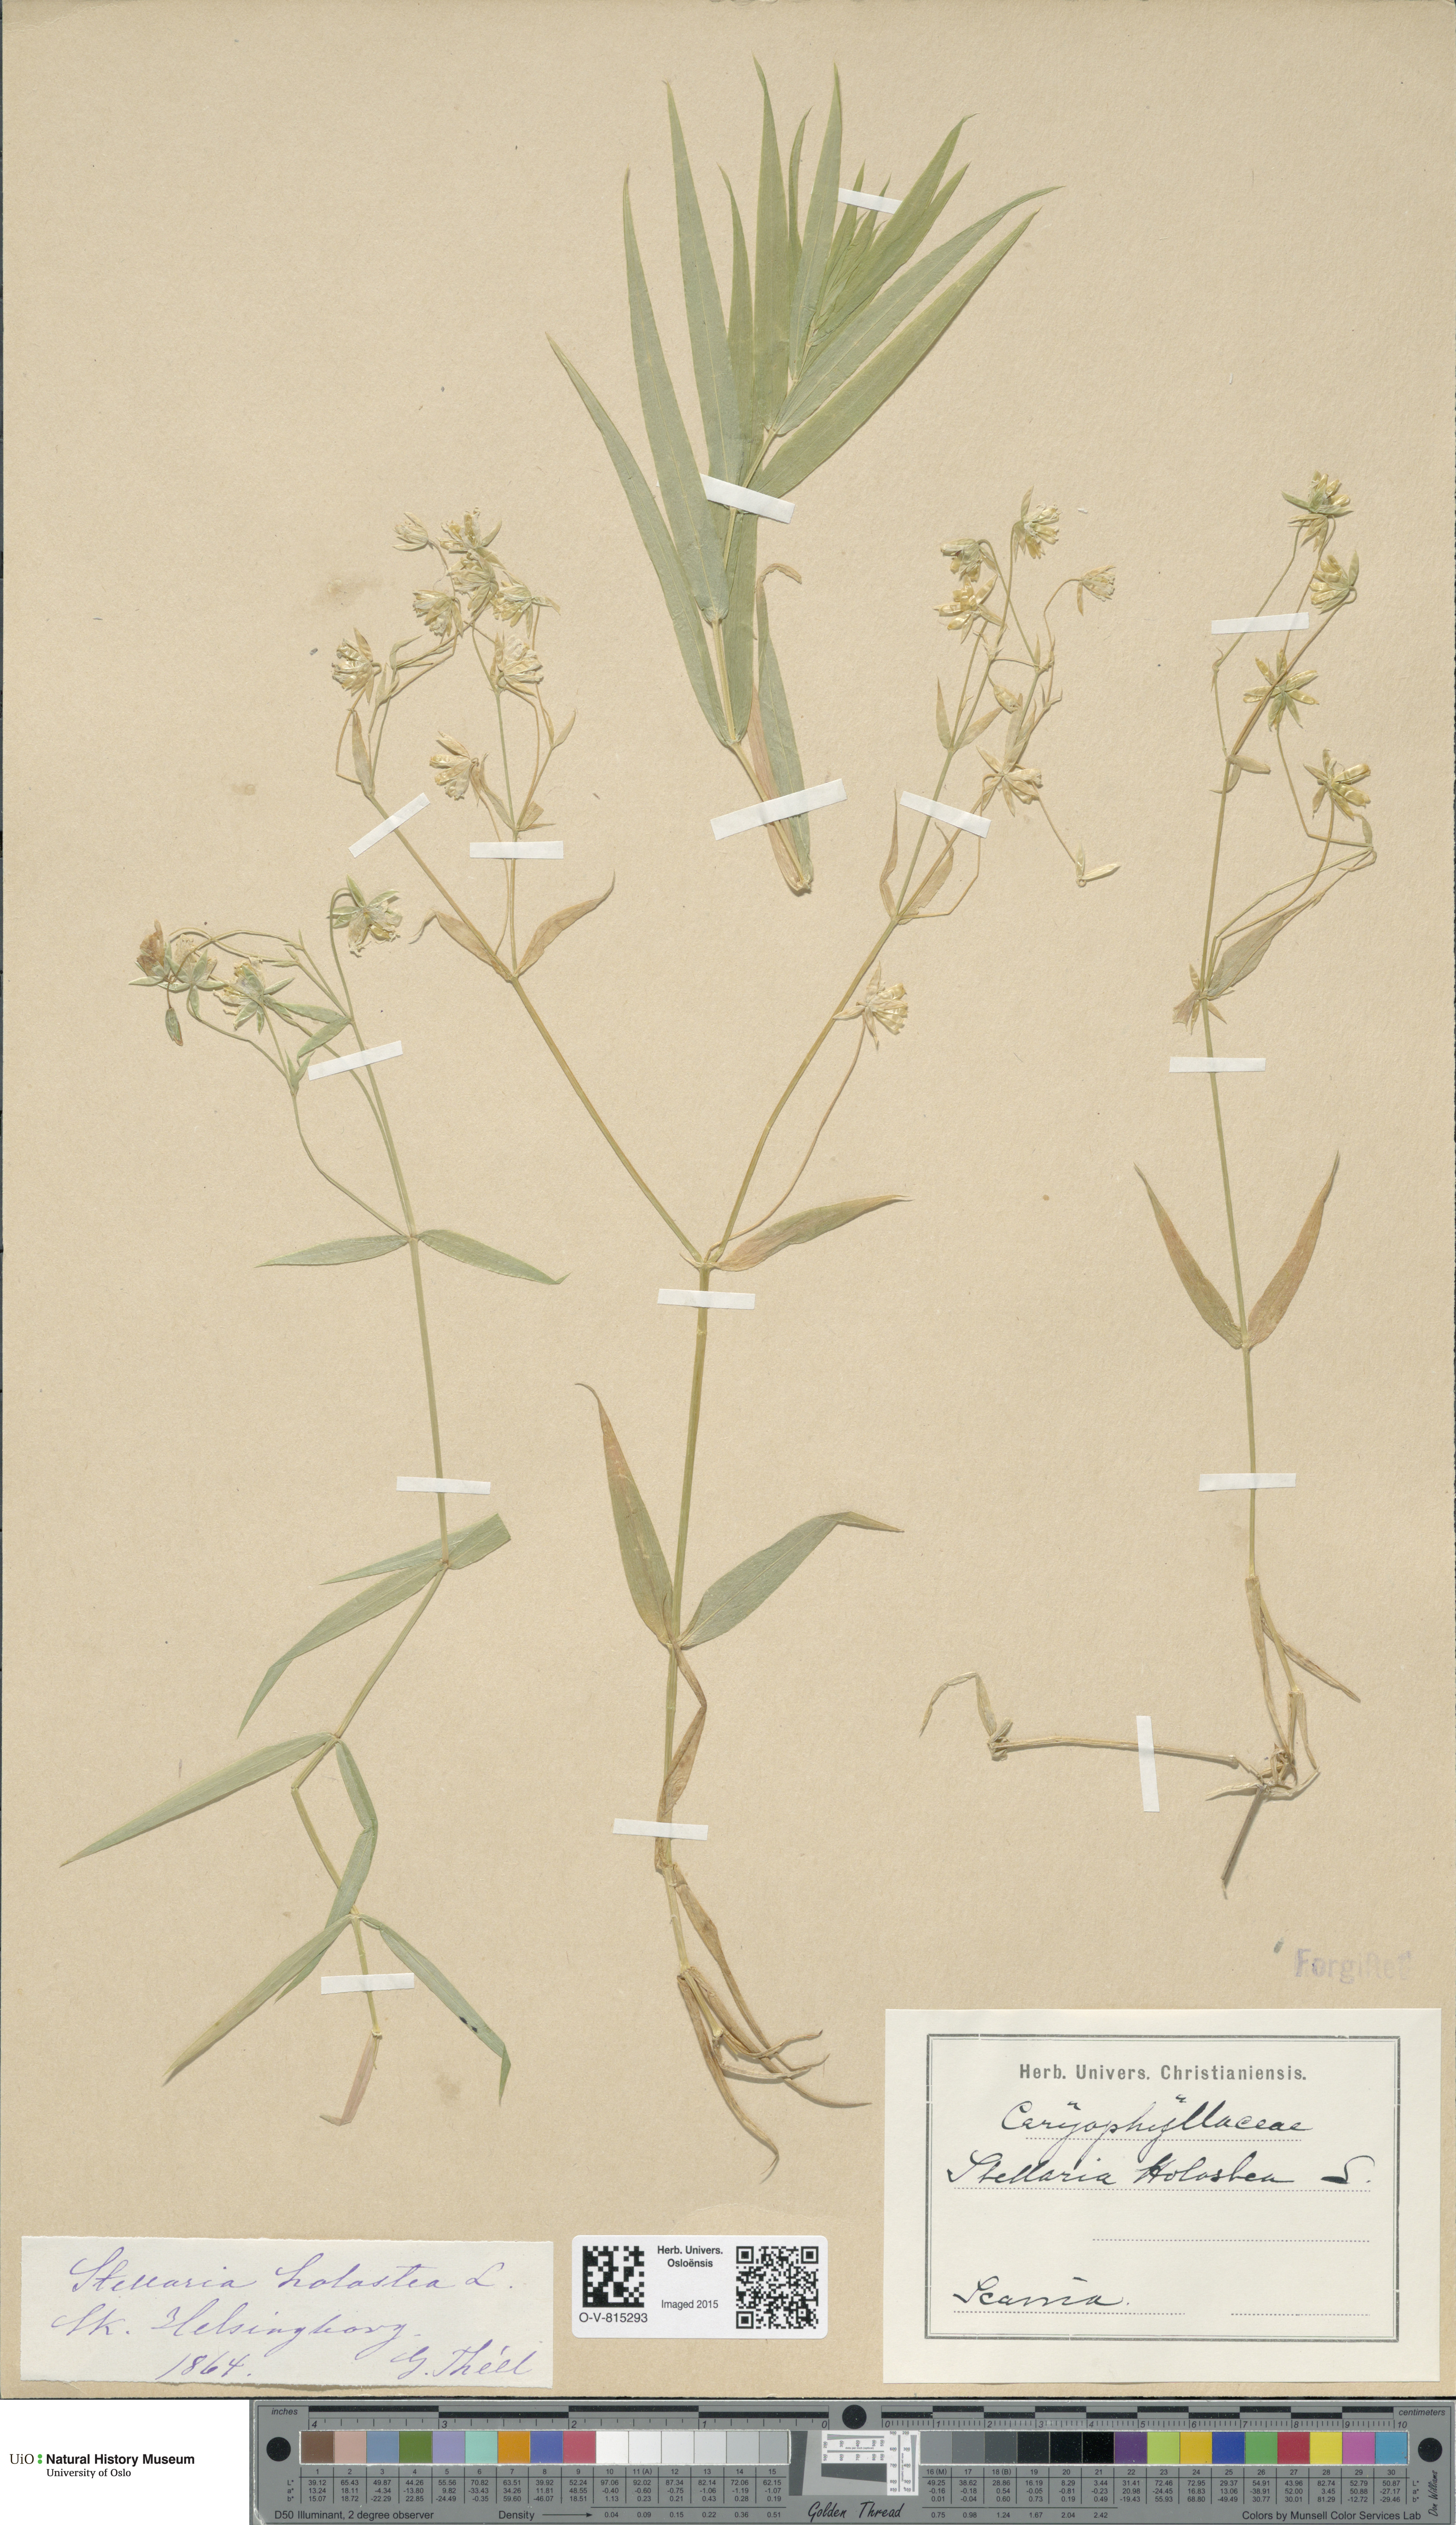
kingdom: Plantae
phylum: Tracheophyta
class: Magnoliopsida
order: Caryophyllales
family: Caryophyllaceae
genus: Rabelera
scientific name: Rabelera holostea
